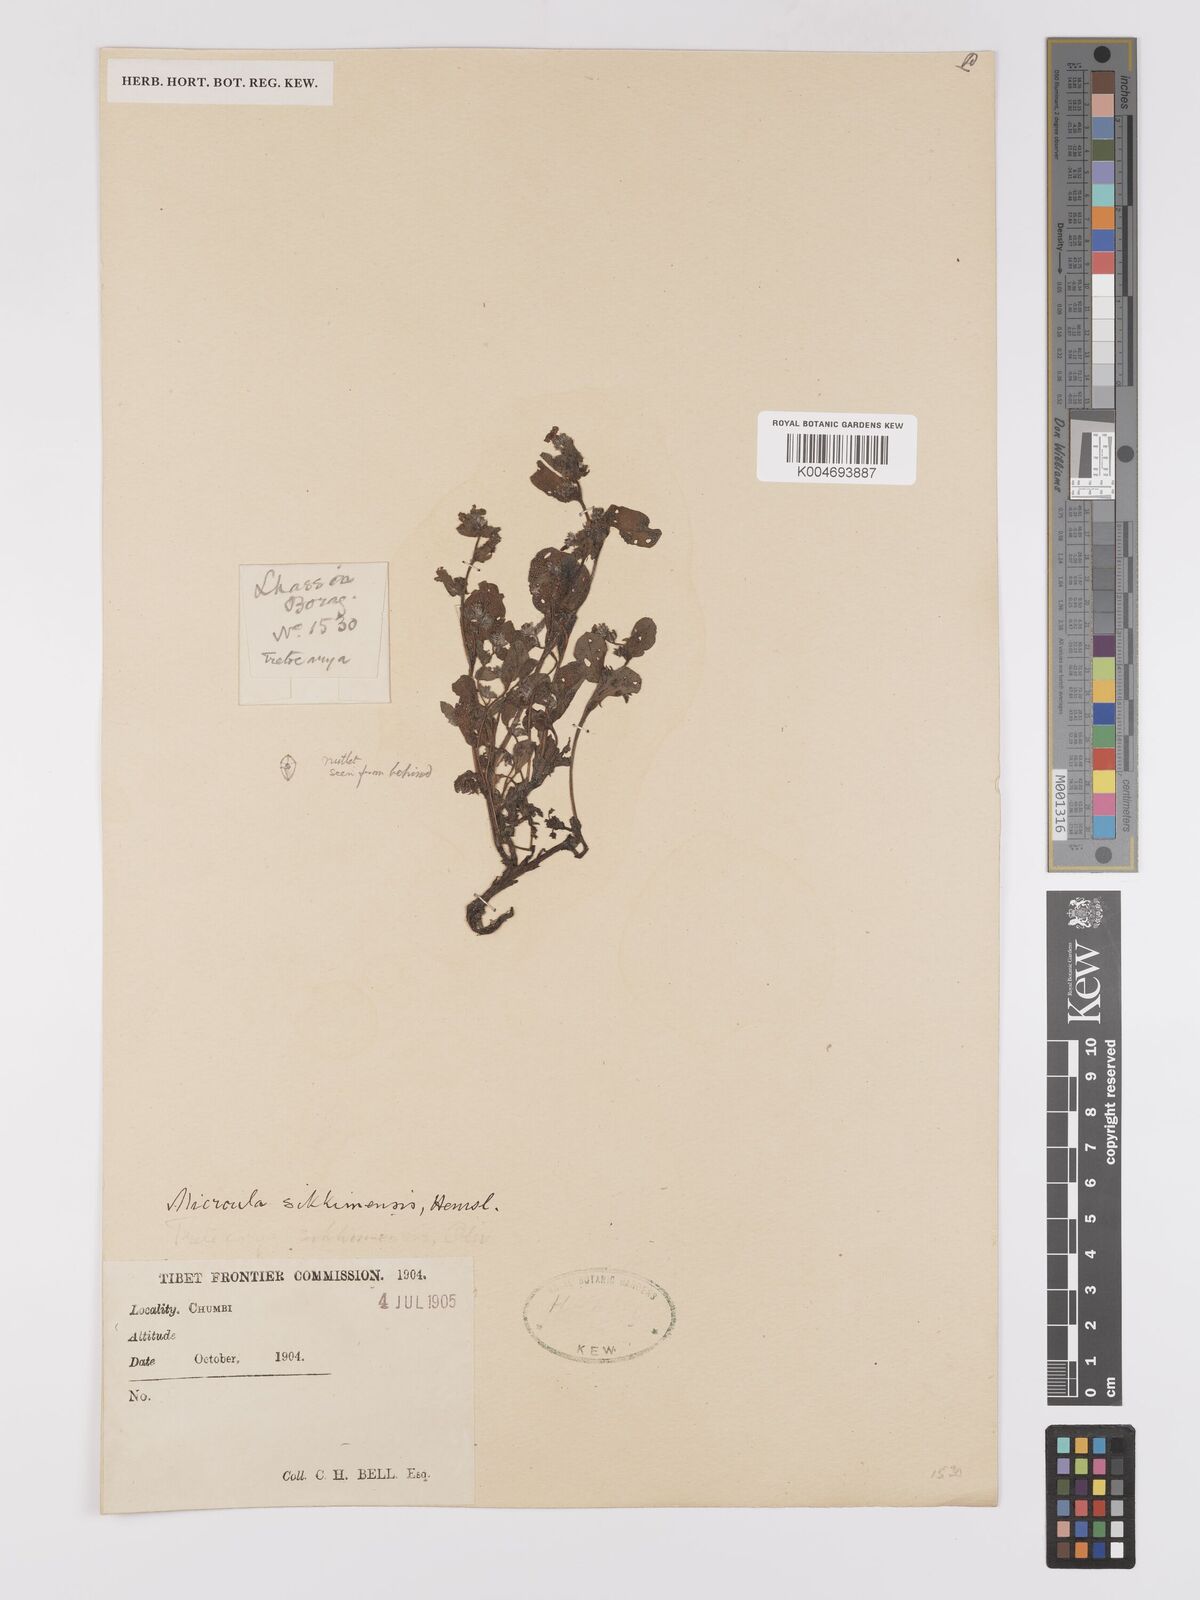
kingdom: Plantae
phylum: Tracheophyta
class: Magnoliopsida
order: Boraginales
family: Boraginaceae
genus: Microula
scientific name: Microula sikkimensis
